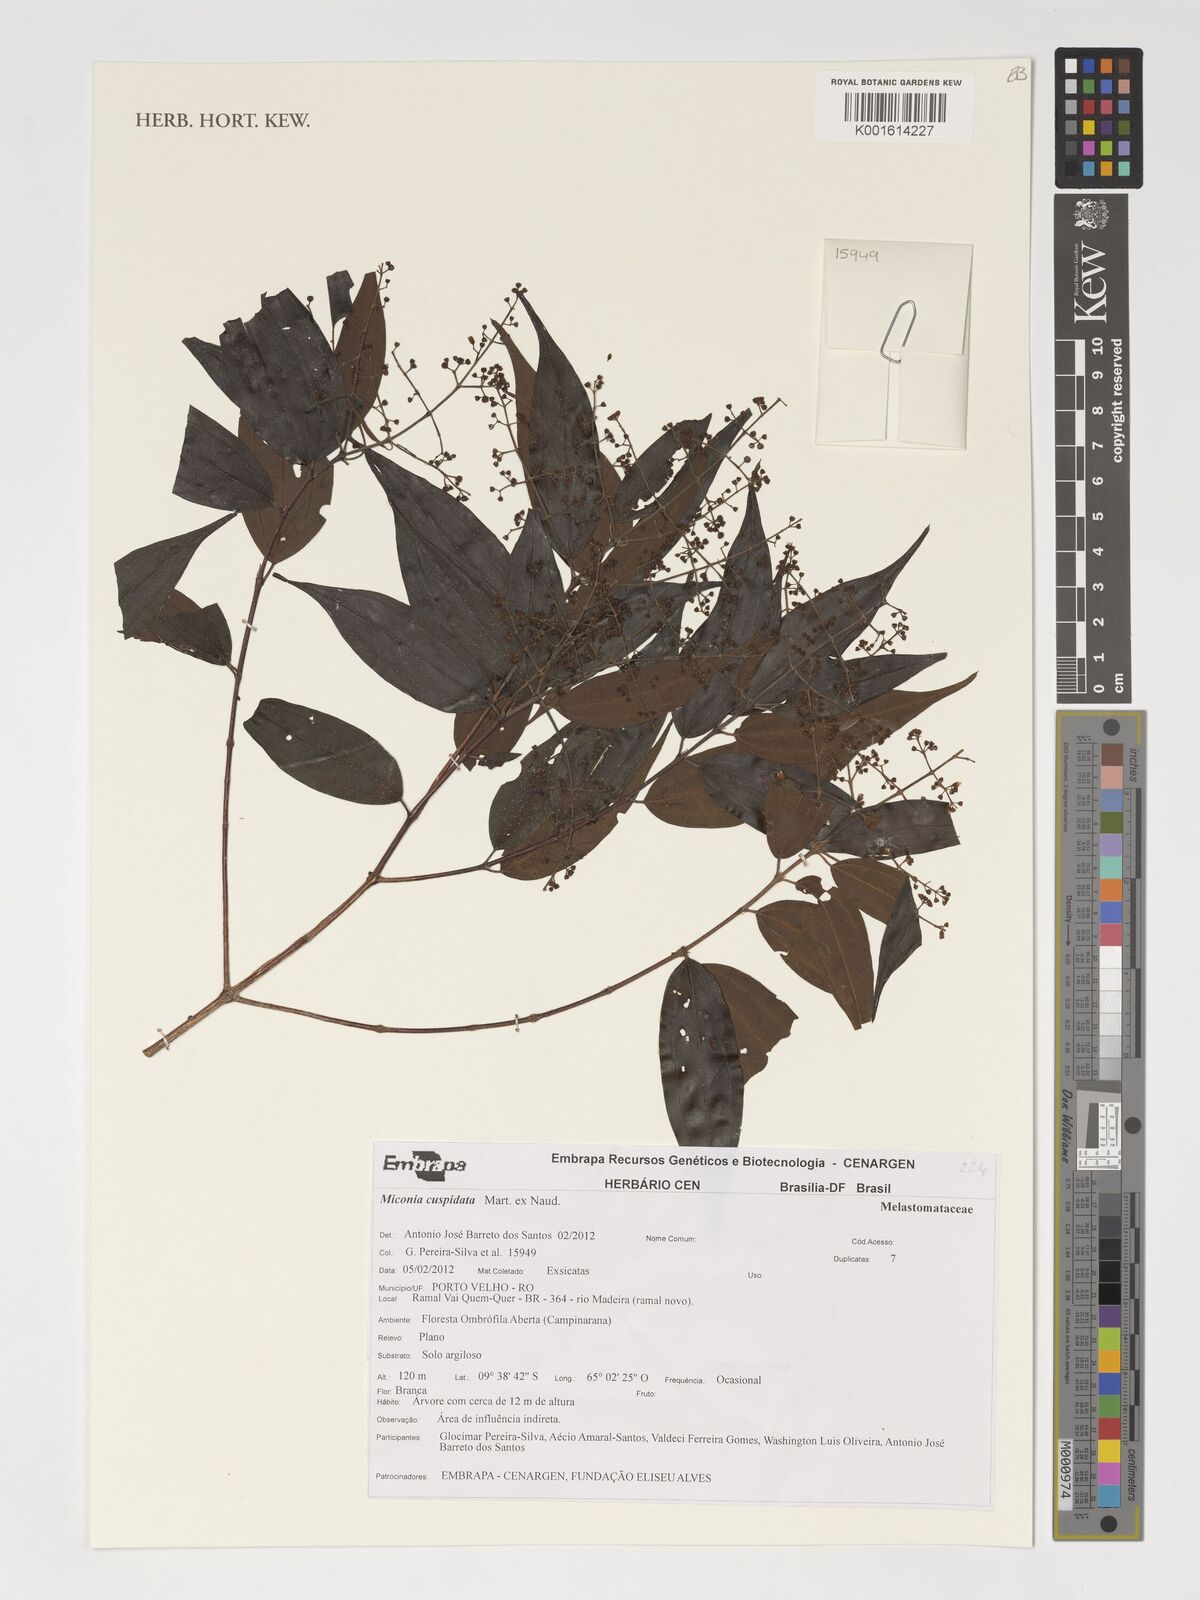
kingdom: Plantae
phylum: Tracheophyta
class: Magnoliopsida
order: Myrtales
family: Melastomataceae
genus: Miconia
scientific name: Miconia cuspidata
